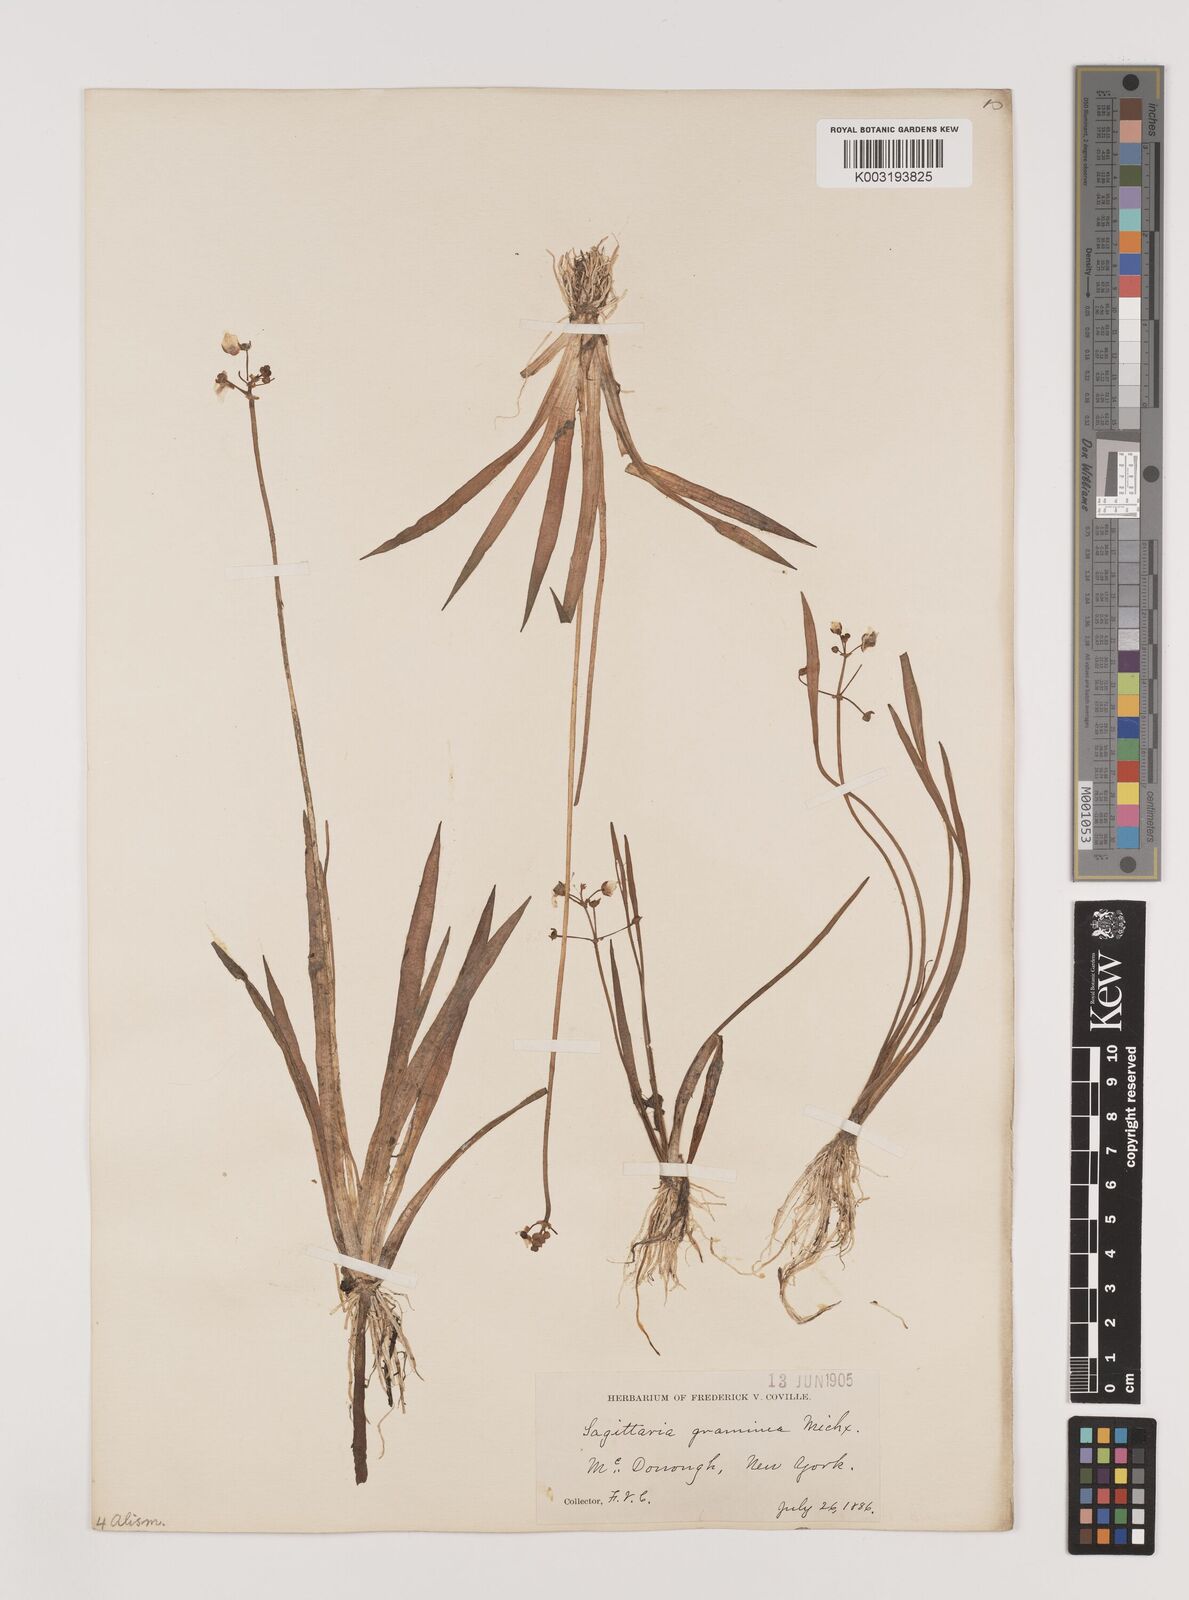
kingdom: Plantae
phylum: Tracheophyta
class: Liliopsida
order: Alismatales
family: Alismataceae
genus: Sagittaria
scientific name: Sagittaria graminea
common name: Grass-leaved arrowhead
